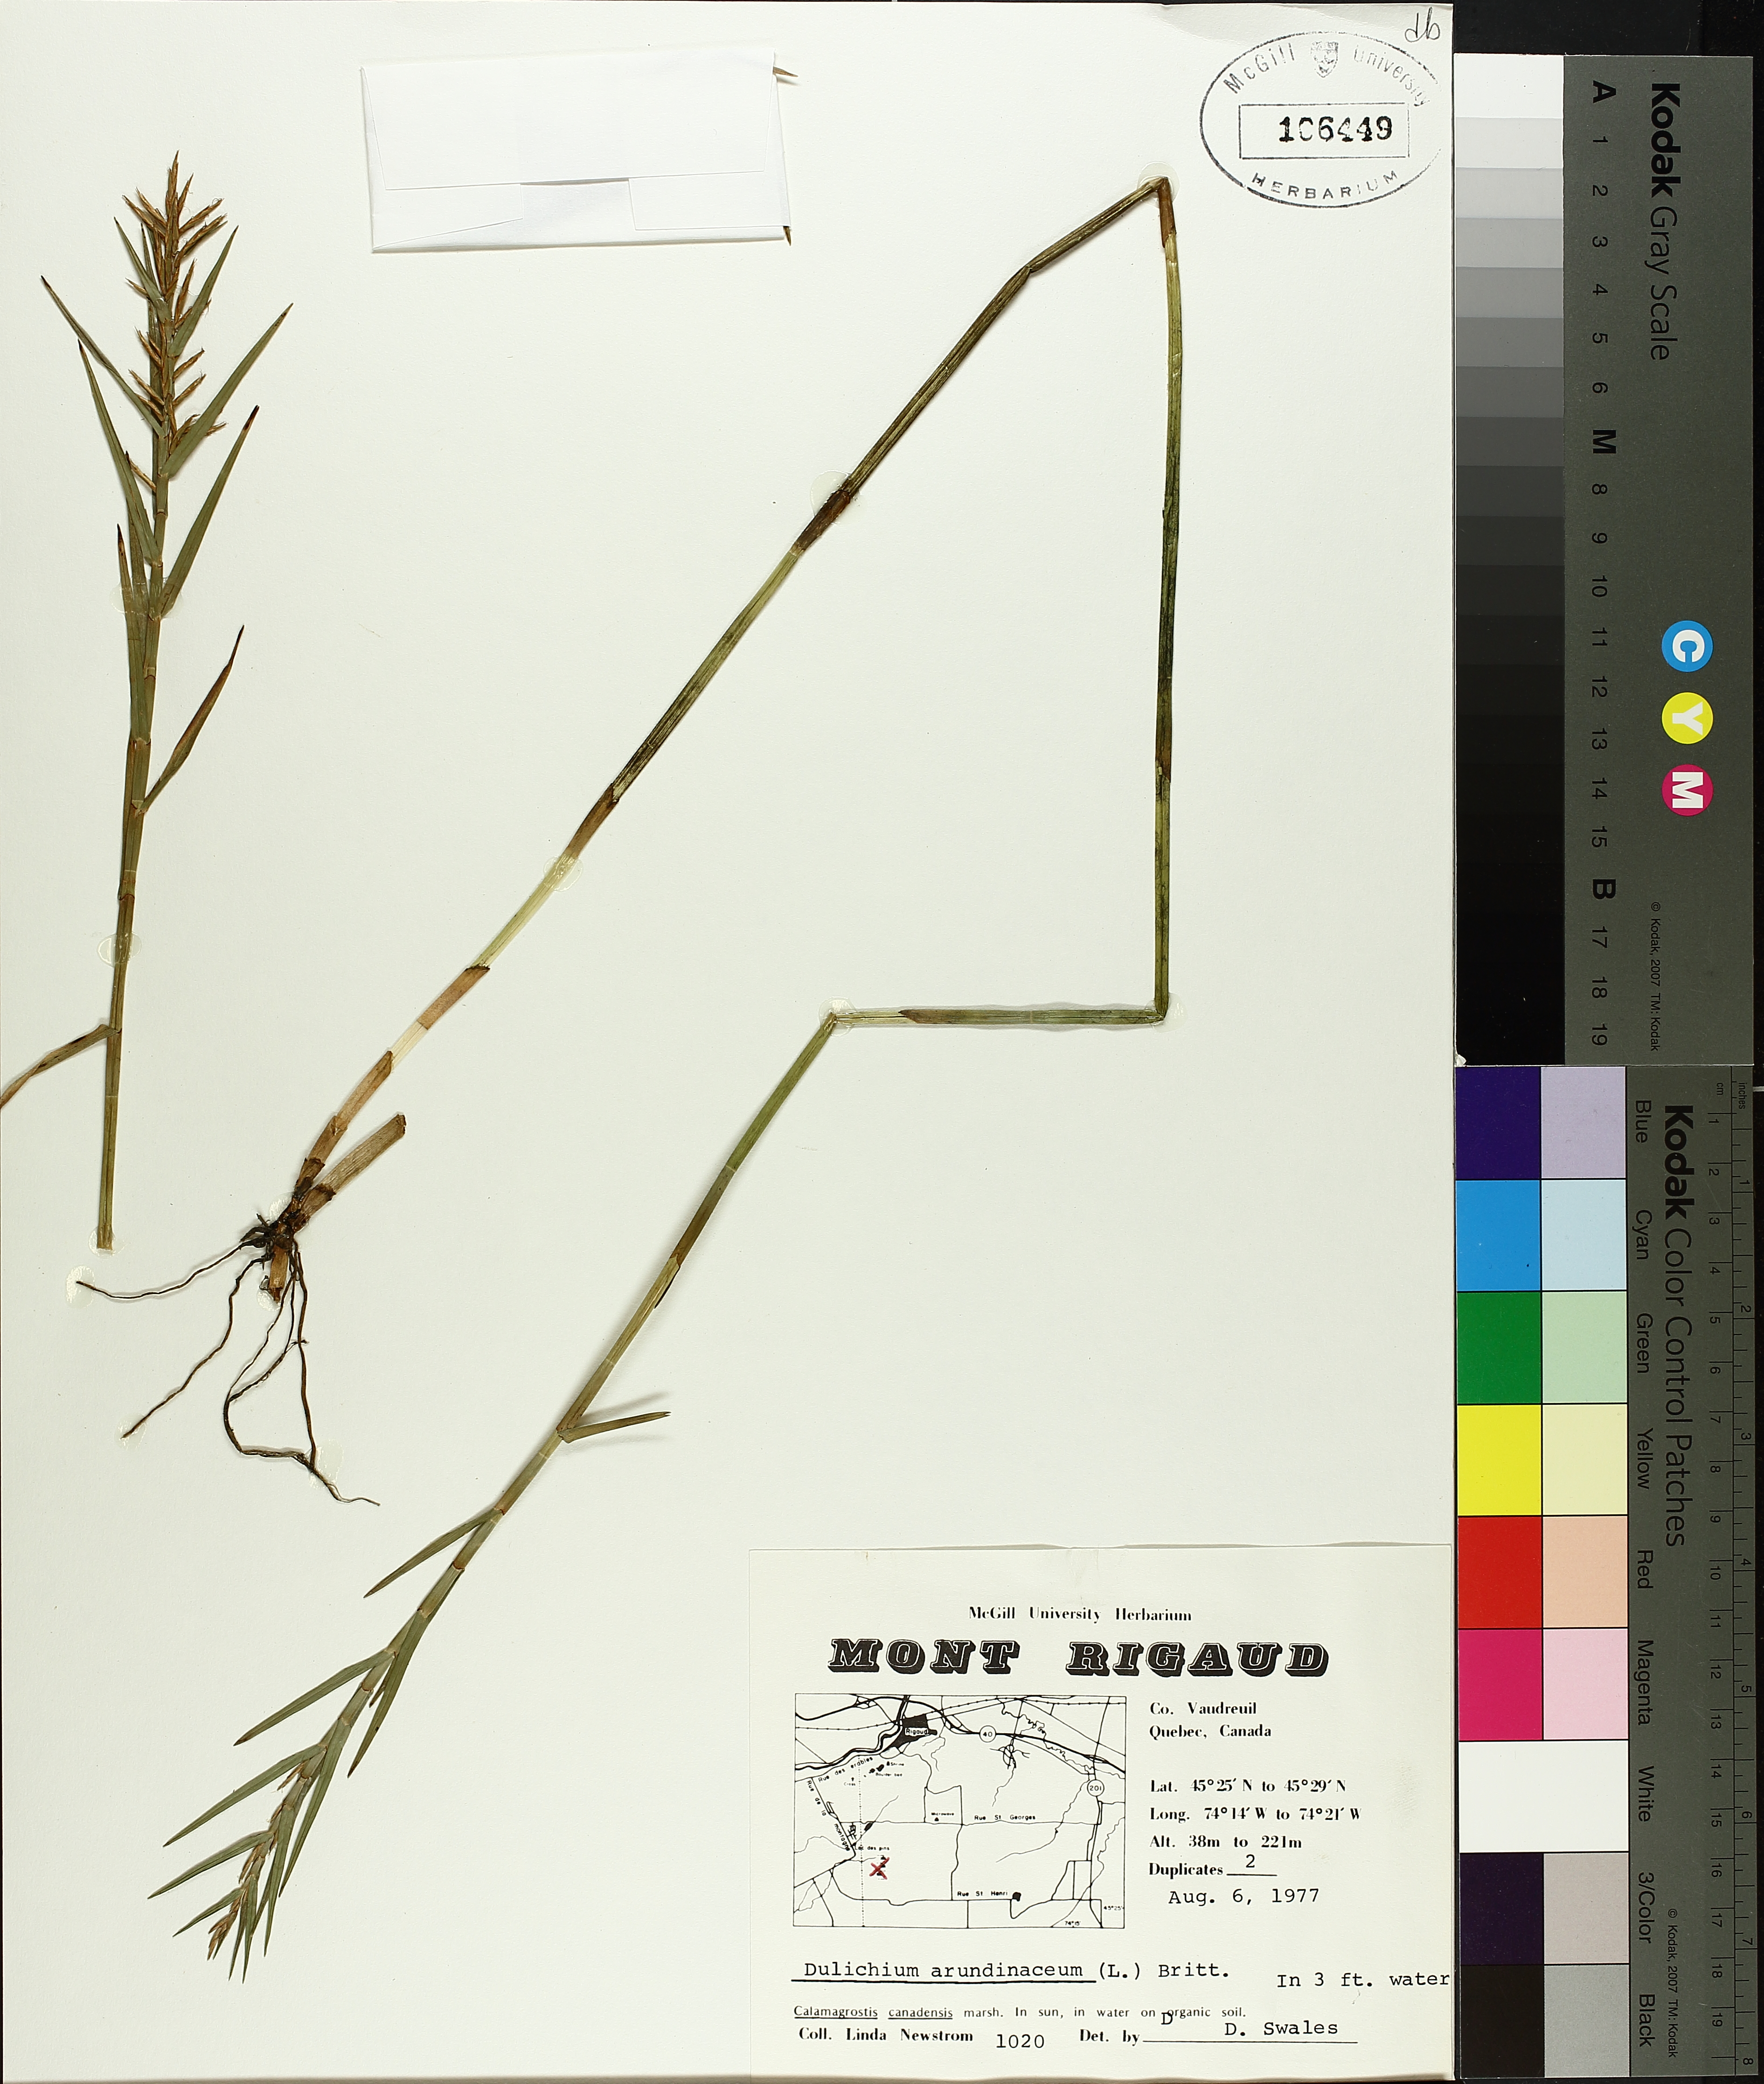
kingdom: Plantae
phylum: Tracheophyta
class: Liliopsida
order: Poales
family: Cyperaceae
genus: Dulichium
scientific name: Dulichium arundinaceum
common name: Three-way sedge
